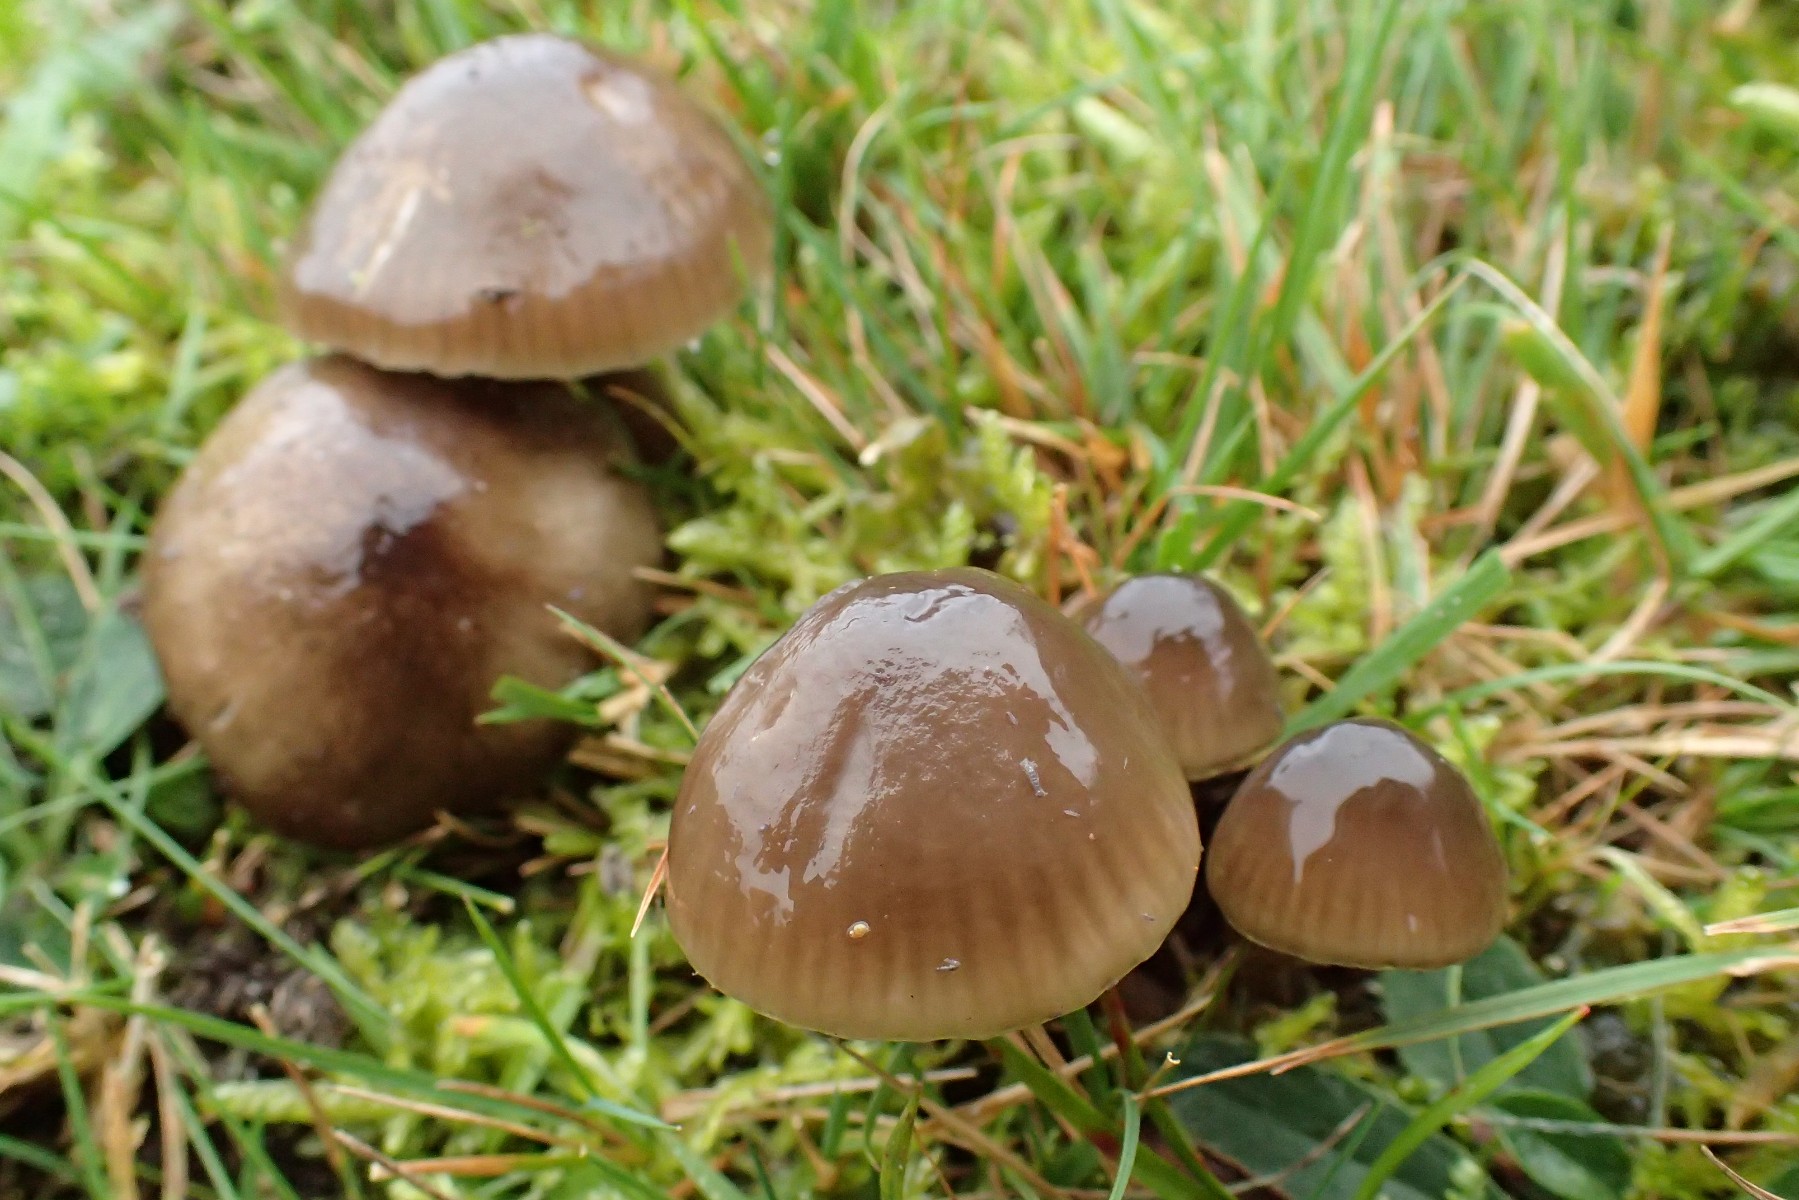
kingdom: Fungi
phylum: Basidiomycota
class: Agaricomycetes
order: Agaricales
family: Hygrophoraceae
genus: Gliophorus
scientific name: Gliophorus irrigatus
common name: slimet vokshat
